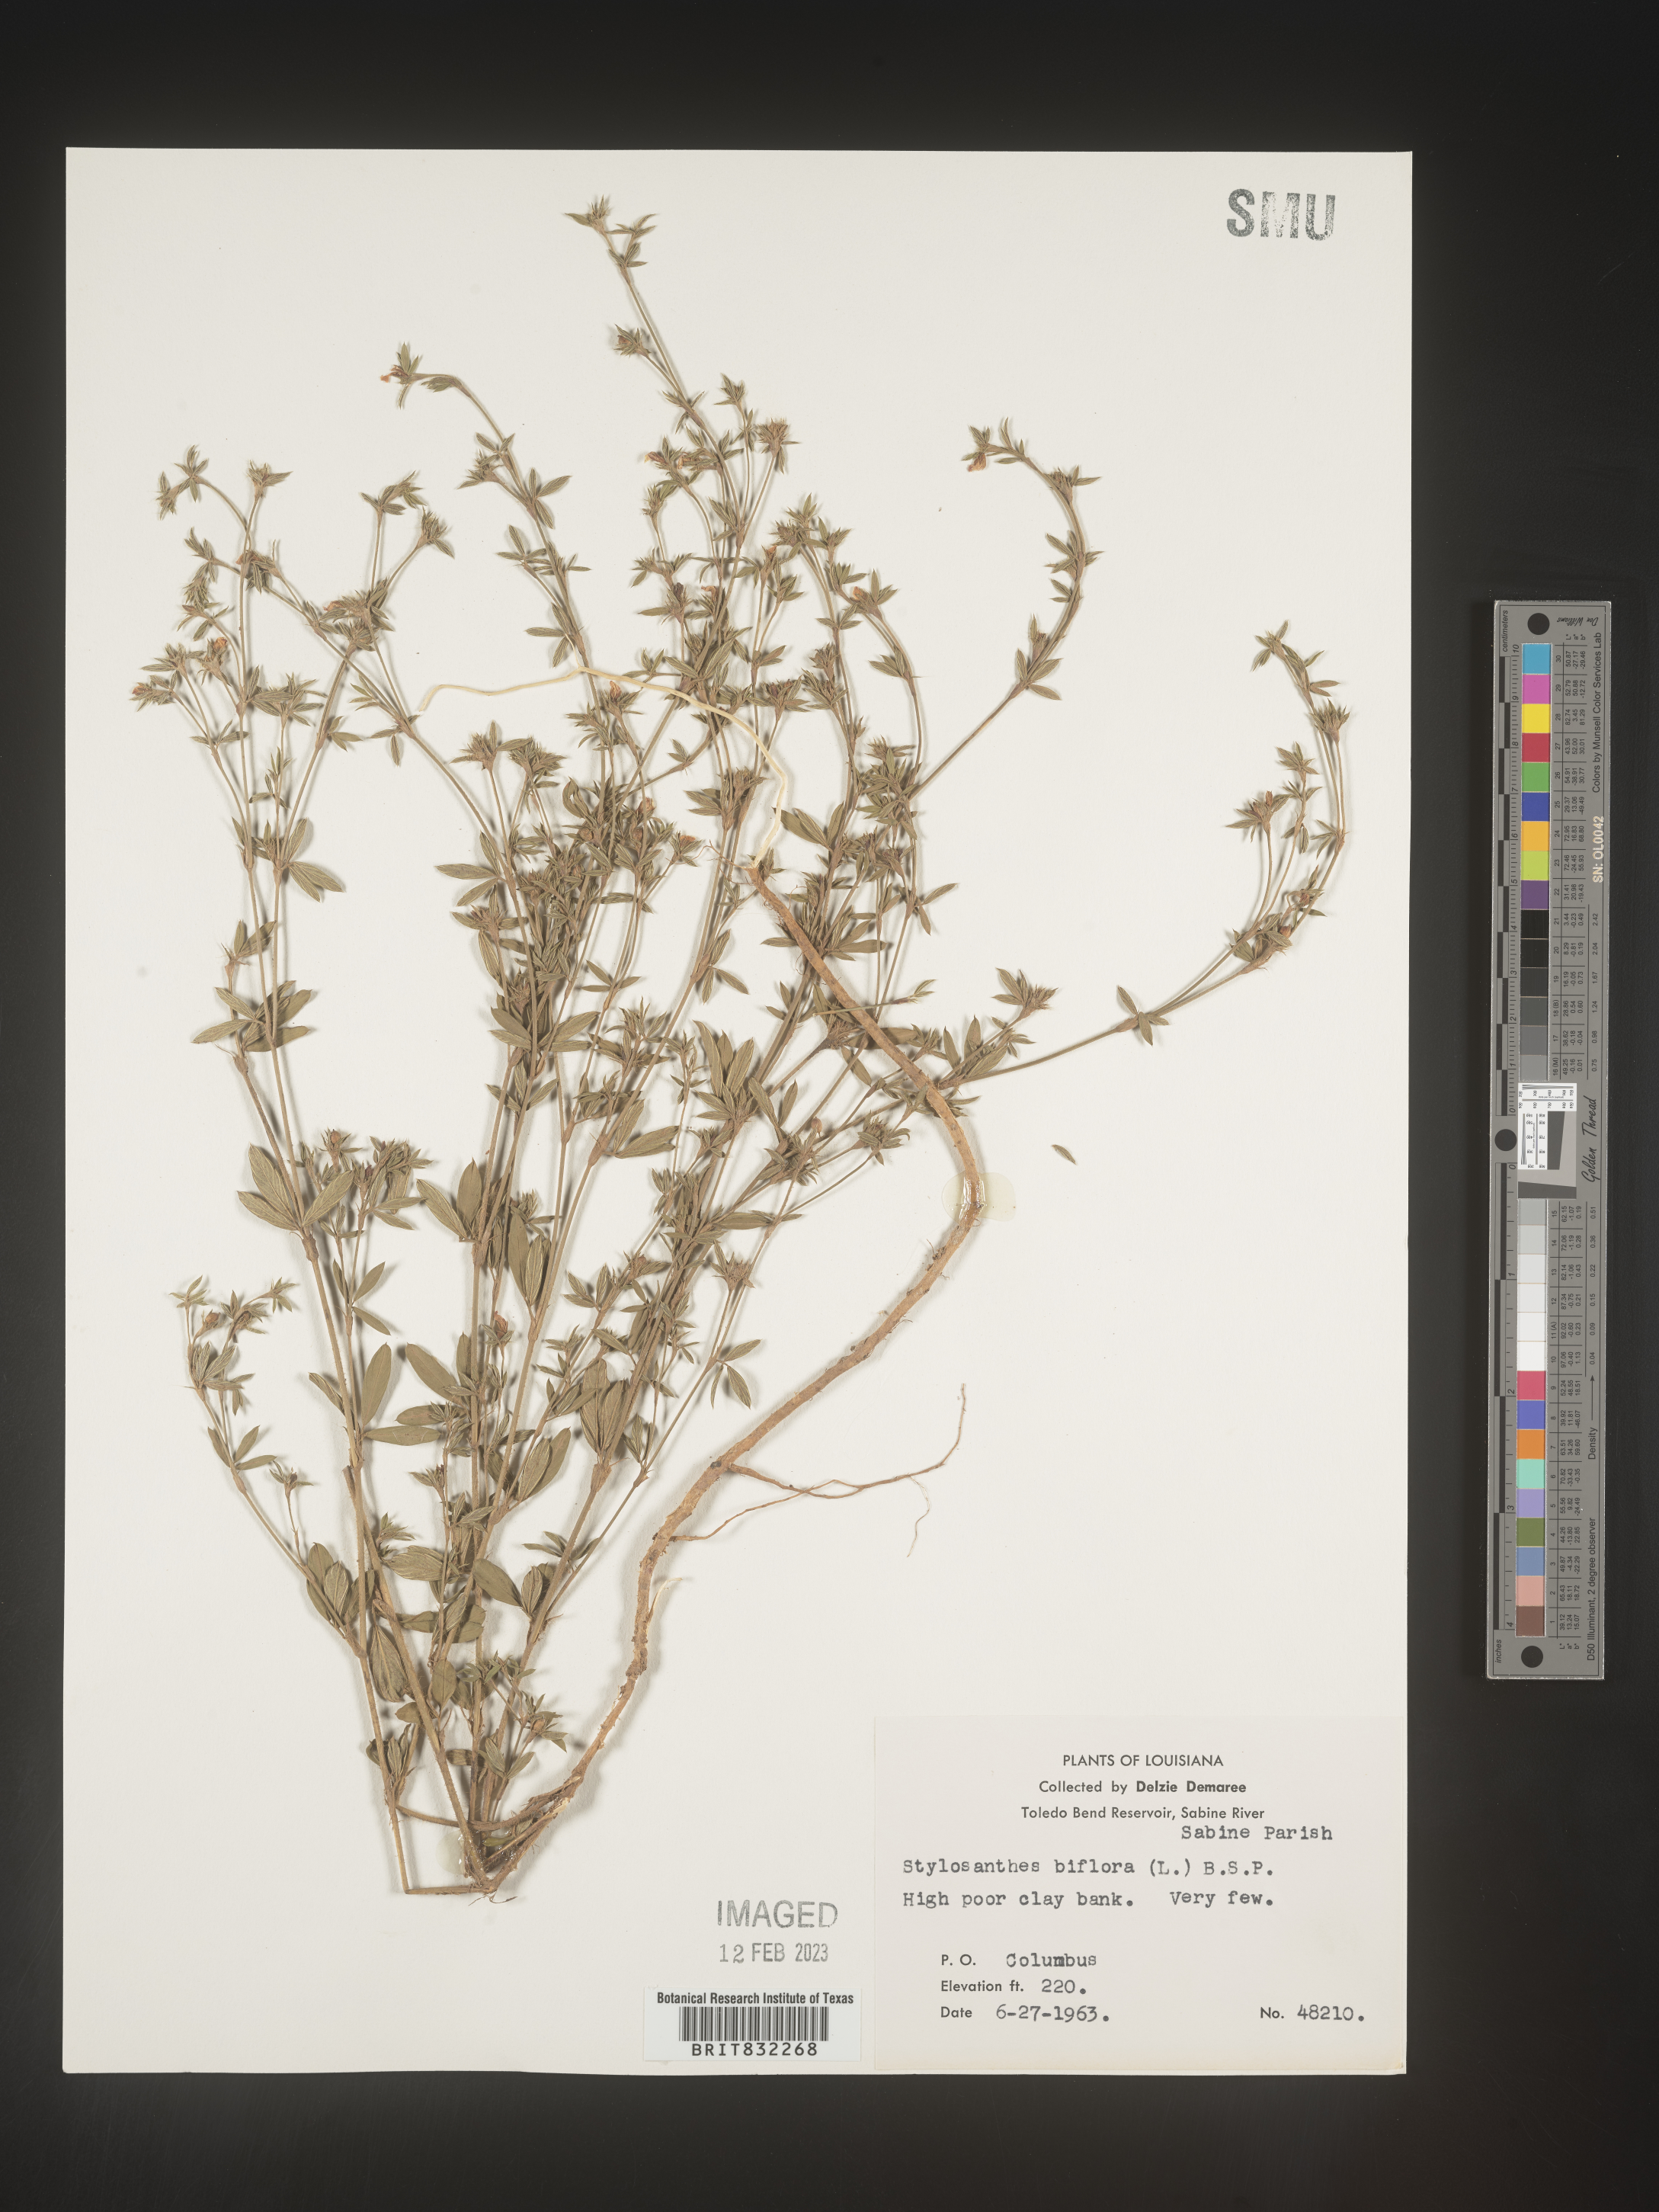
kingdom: Plantae
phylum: Tracheophyta
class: Magnoliopsida
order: Fabales
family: Fabaceae
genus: Stylosanthes
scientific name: Stylosanthes biflora
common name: Two-flower pencil-flower
